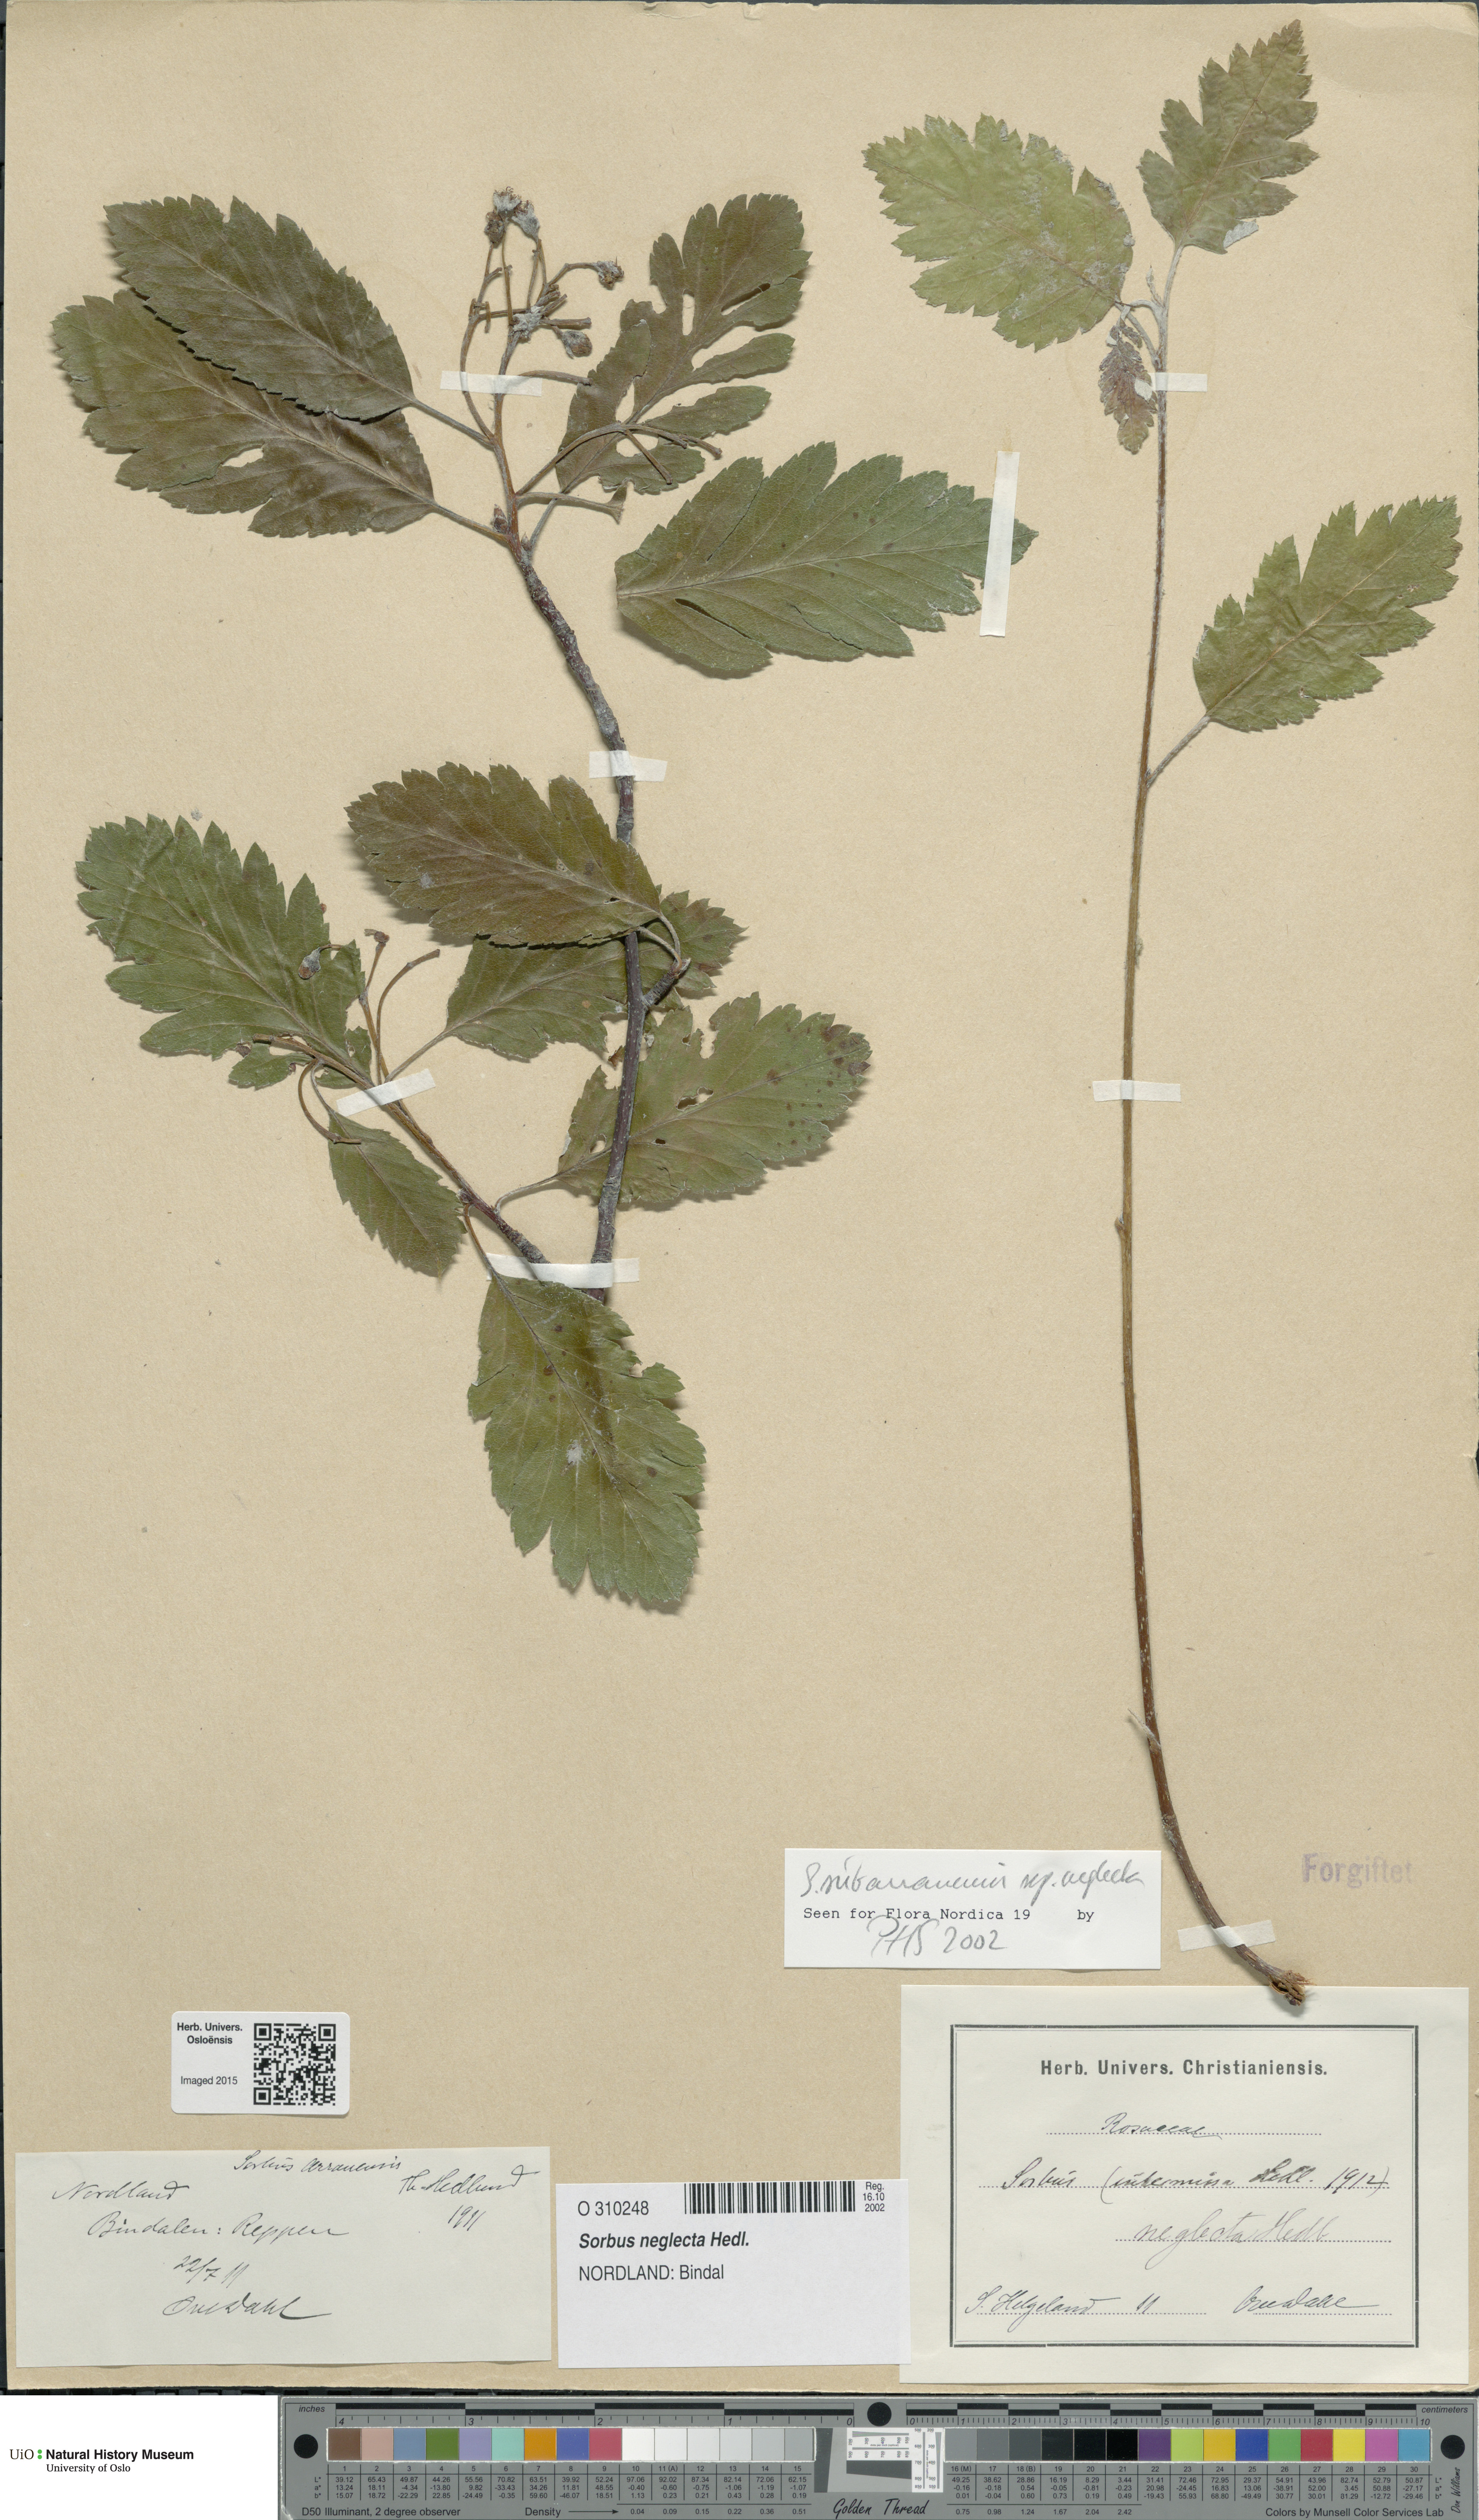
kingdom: Plantae
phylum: Tracheophyta
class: Magnoliopsida
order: Rosales
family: Rosaceae
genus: Hedlundia
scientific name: Hedlundia neglecta
